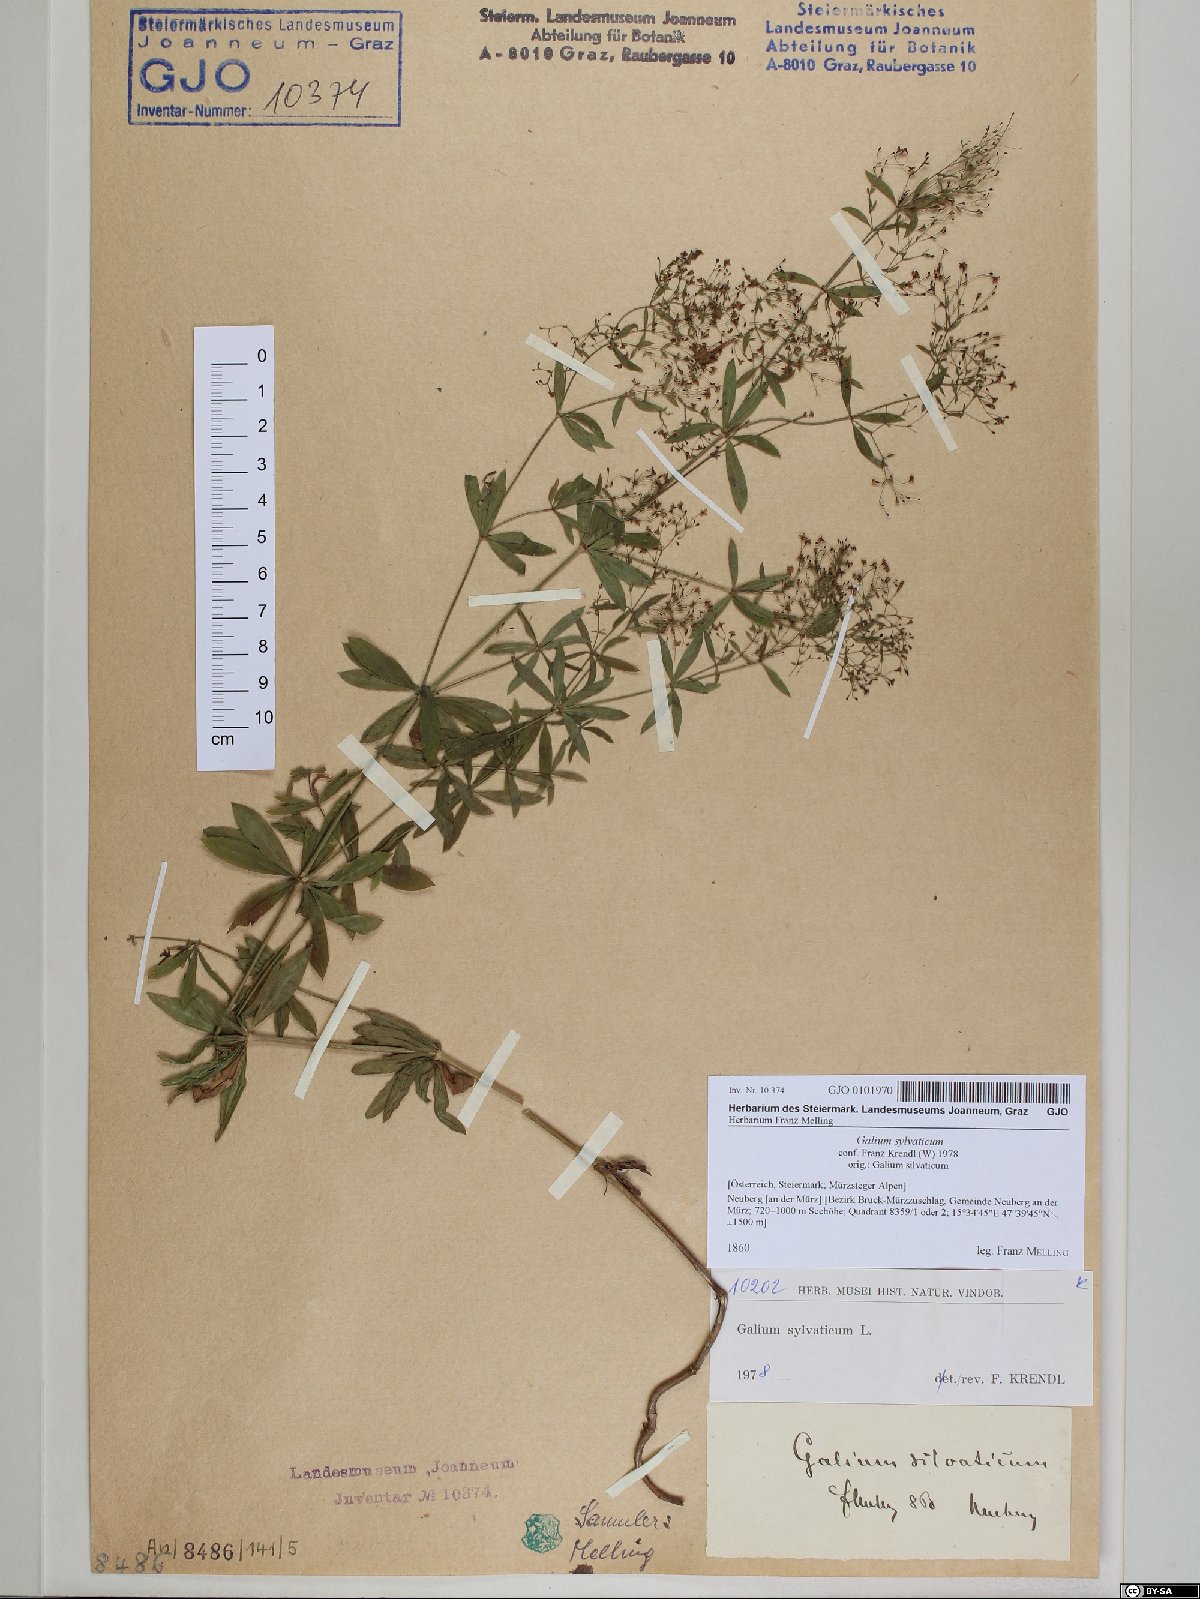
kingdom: Plantae
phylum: Tracheophyta
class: Magnoliopsida
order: Gentianales
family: Rubiaceae
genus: Galium
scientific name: Galium sylvaticum
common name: Wood bedstraw
